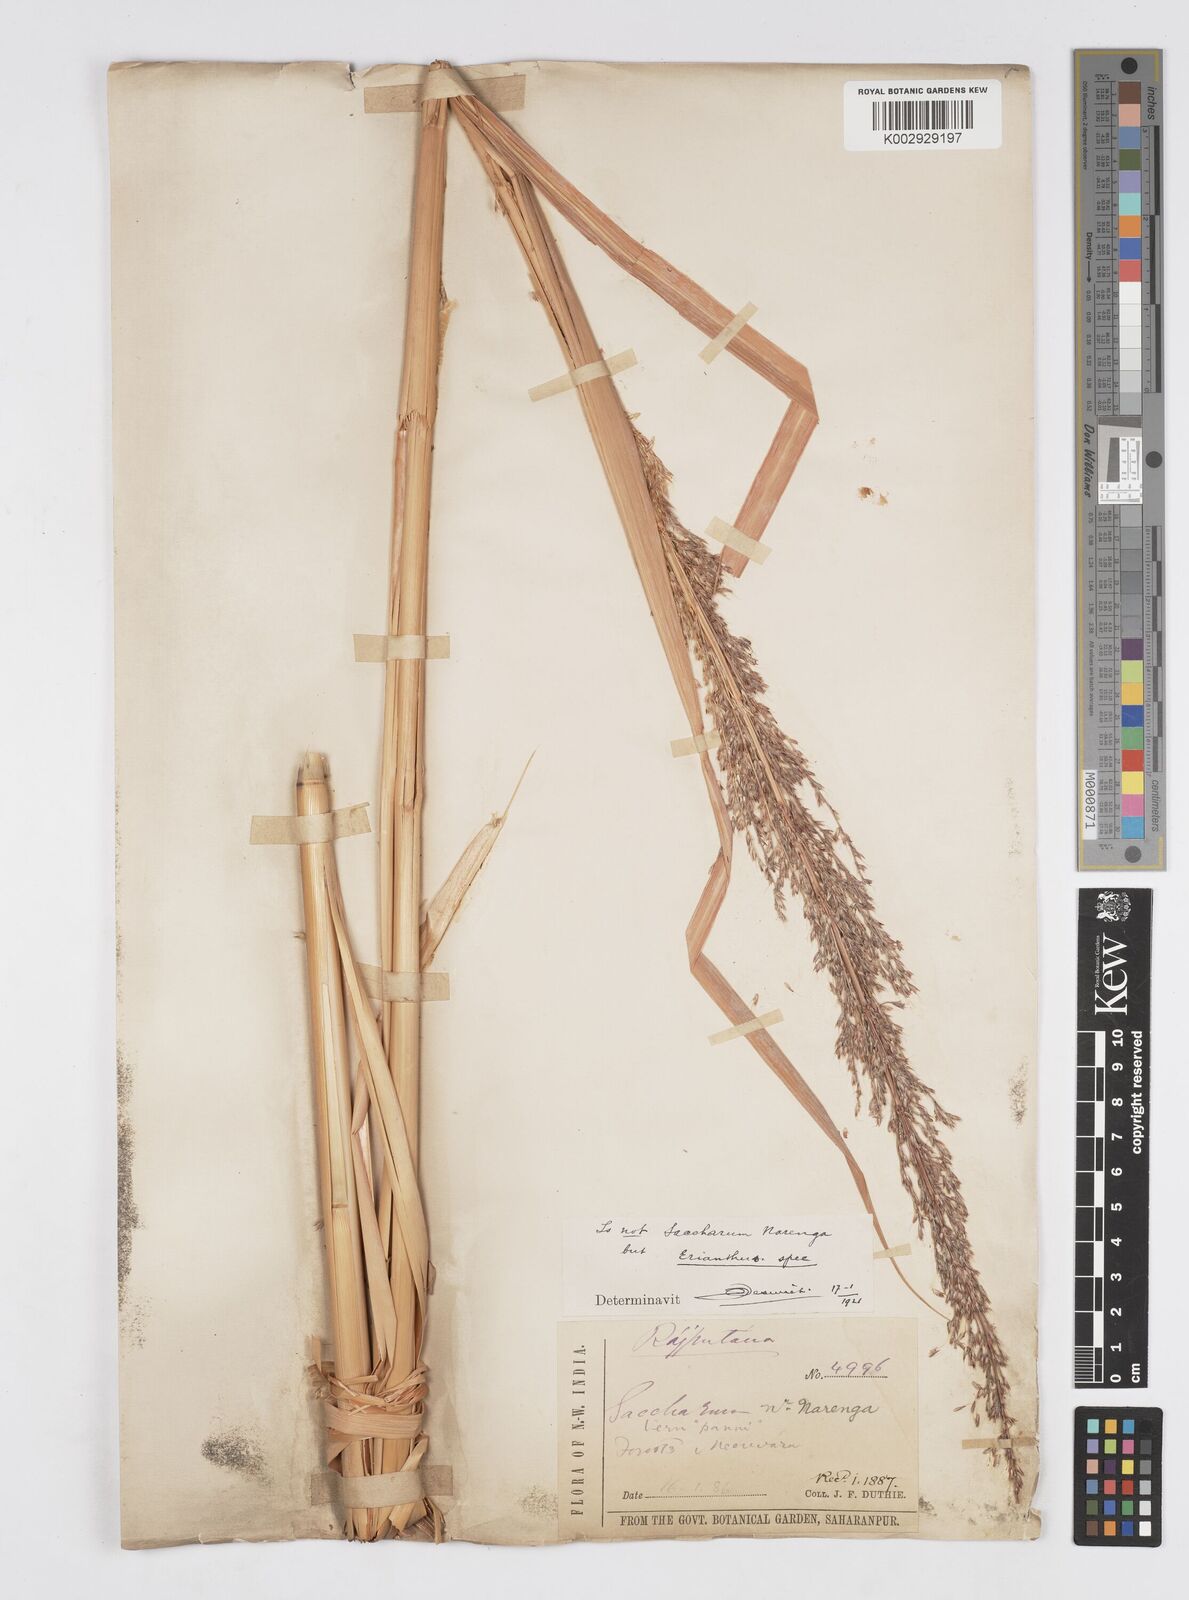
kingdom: Plantae
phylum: Tracheophyta
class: Liliopsida
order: Poales
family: Poaceae
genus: Tripidium
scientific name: Tripidium ravennae
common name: Ravenna grass
